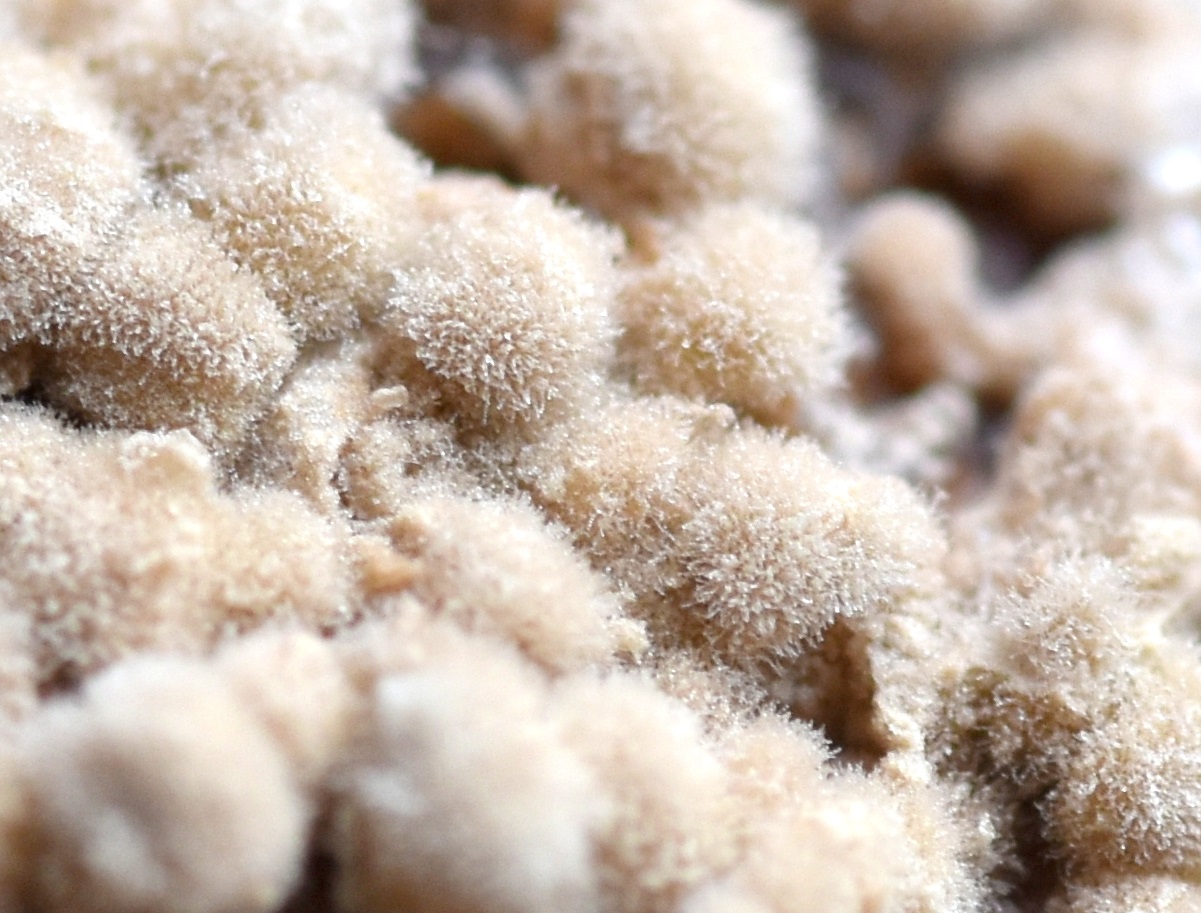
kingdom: Fungi
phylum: Ascomycota
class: Leotiomycetes
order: Helotiales
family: Sclerotiniaceae
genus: Monilinia
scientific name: Monilinia fructigena
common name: æble-knoldskive
